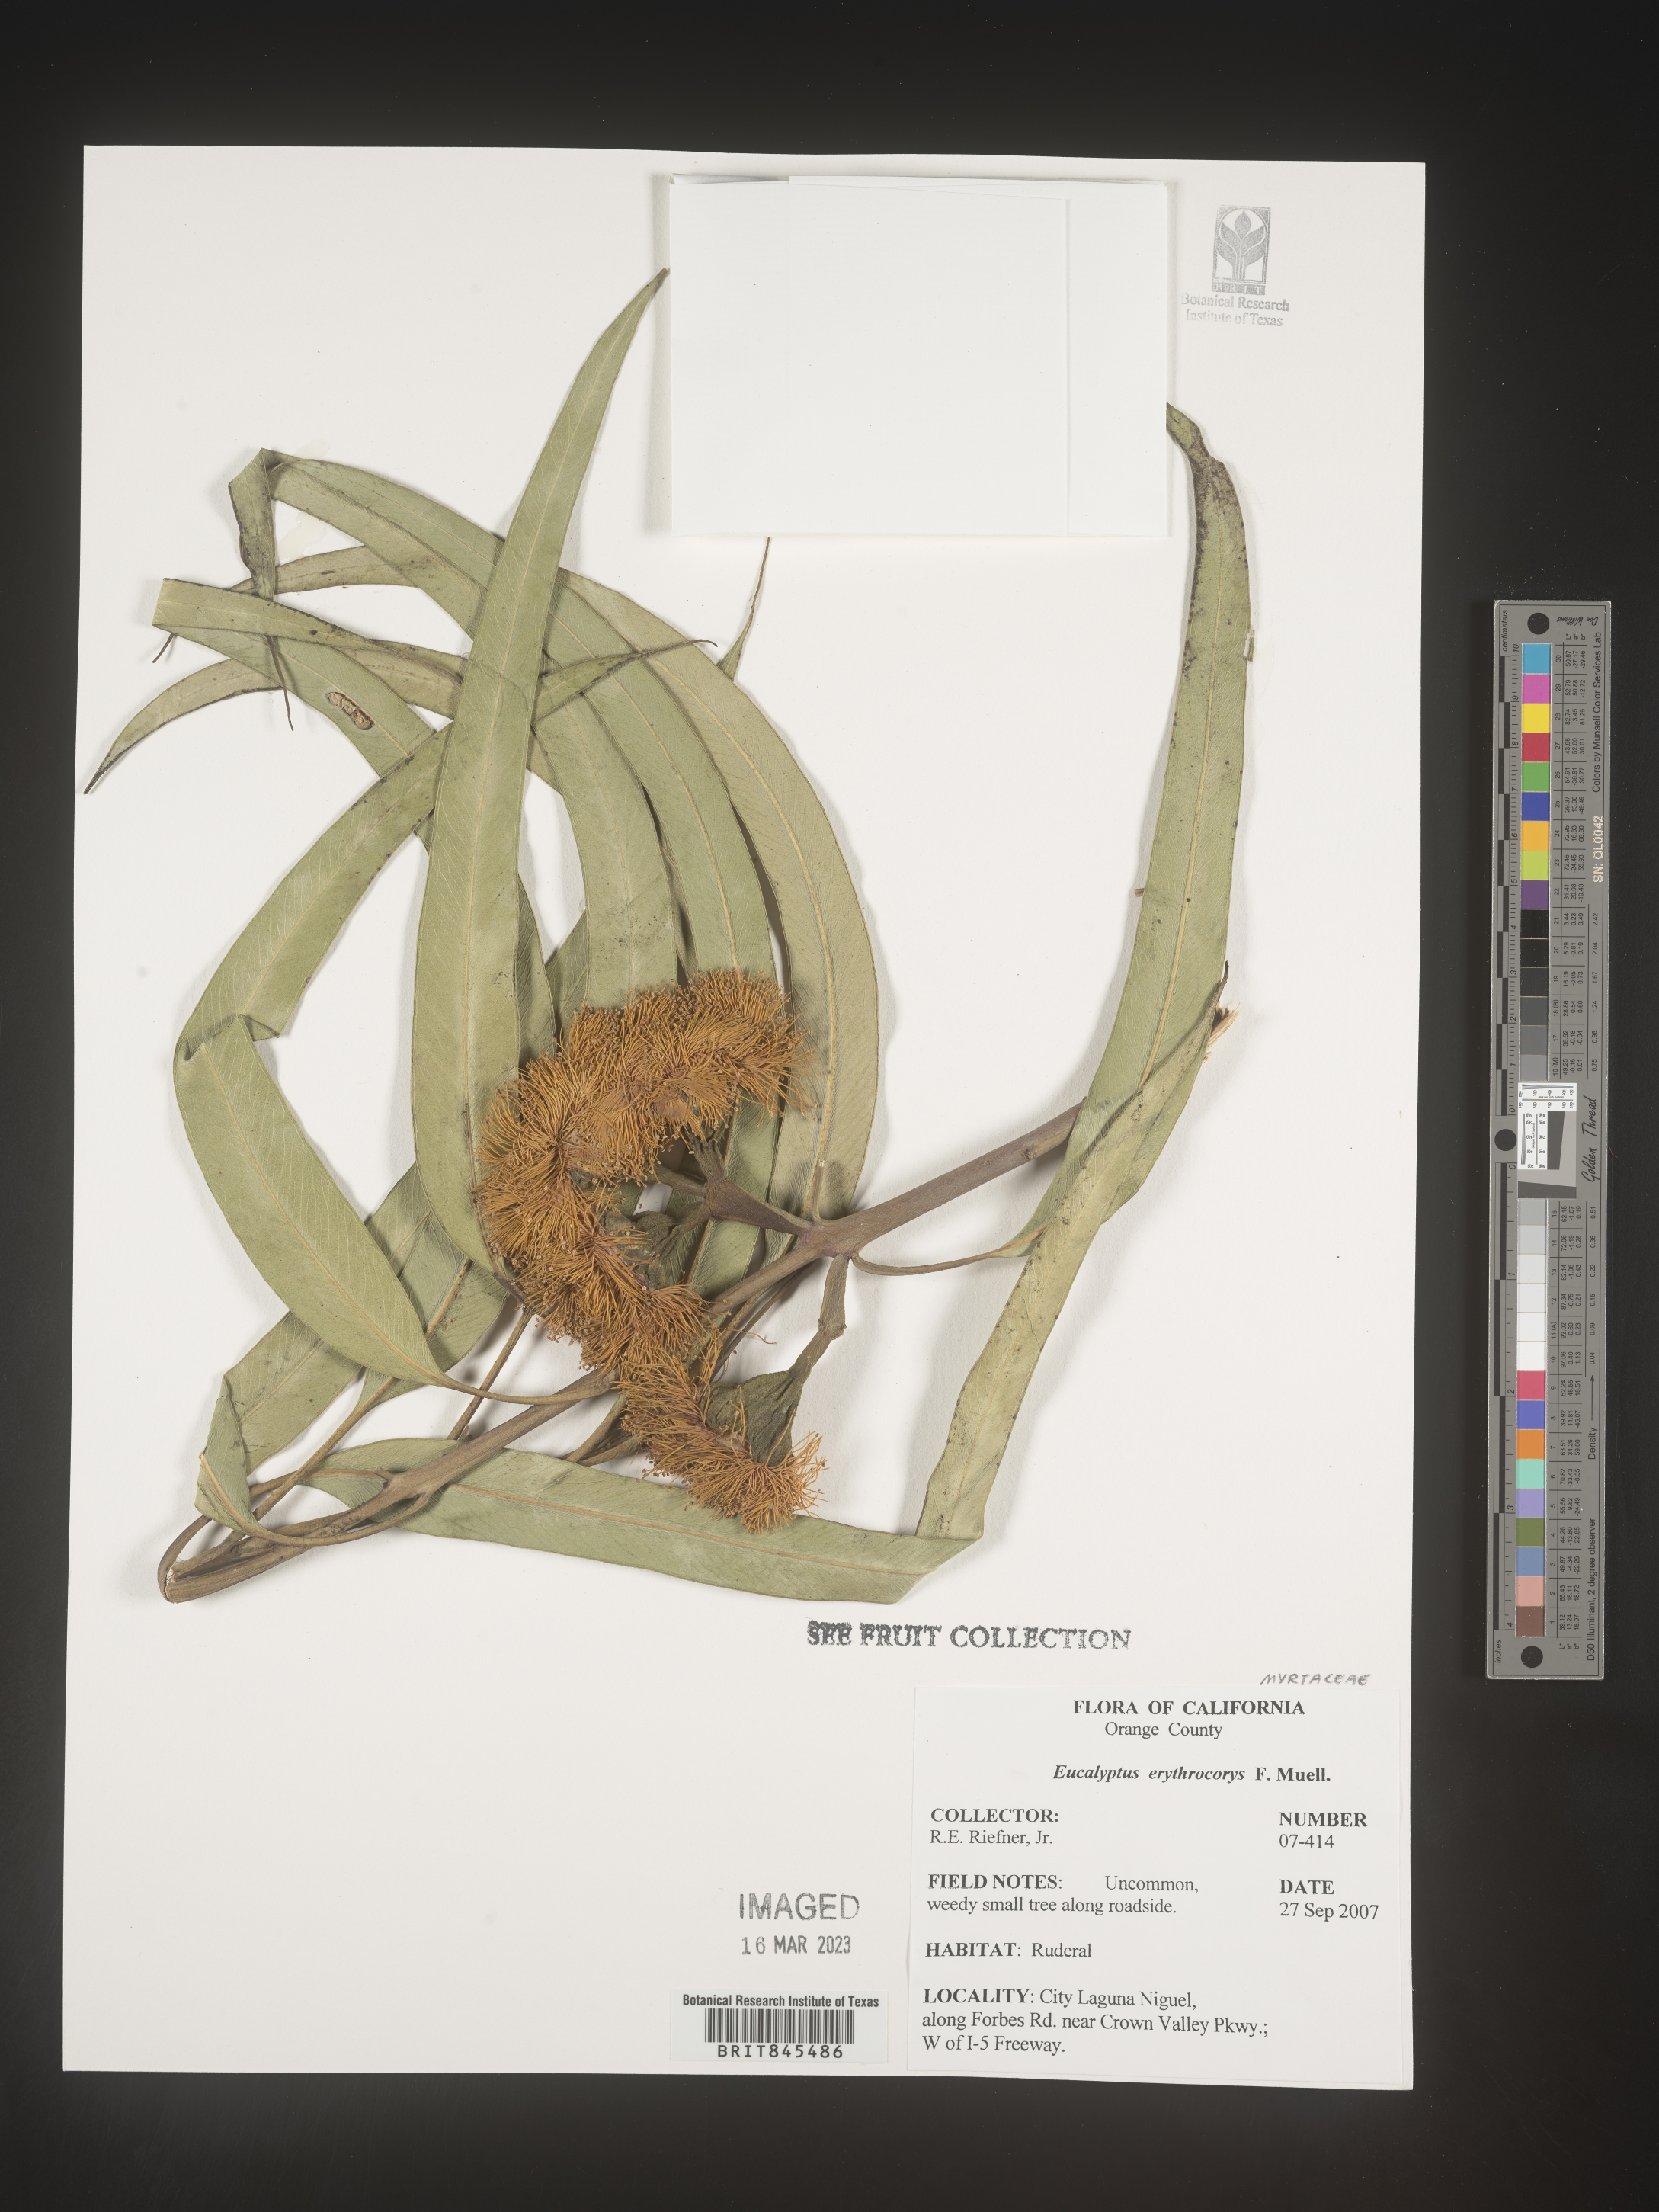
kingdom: Plantae
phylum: Tracheophyta
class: Magnoliopsida
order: Myrtales
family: Myrtaceae
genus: Eucalyptus
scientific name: Eucalyptus
